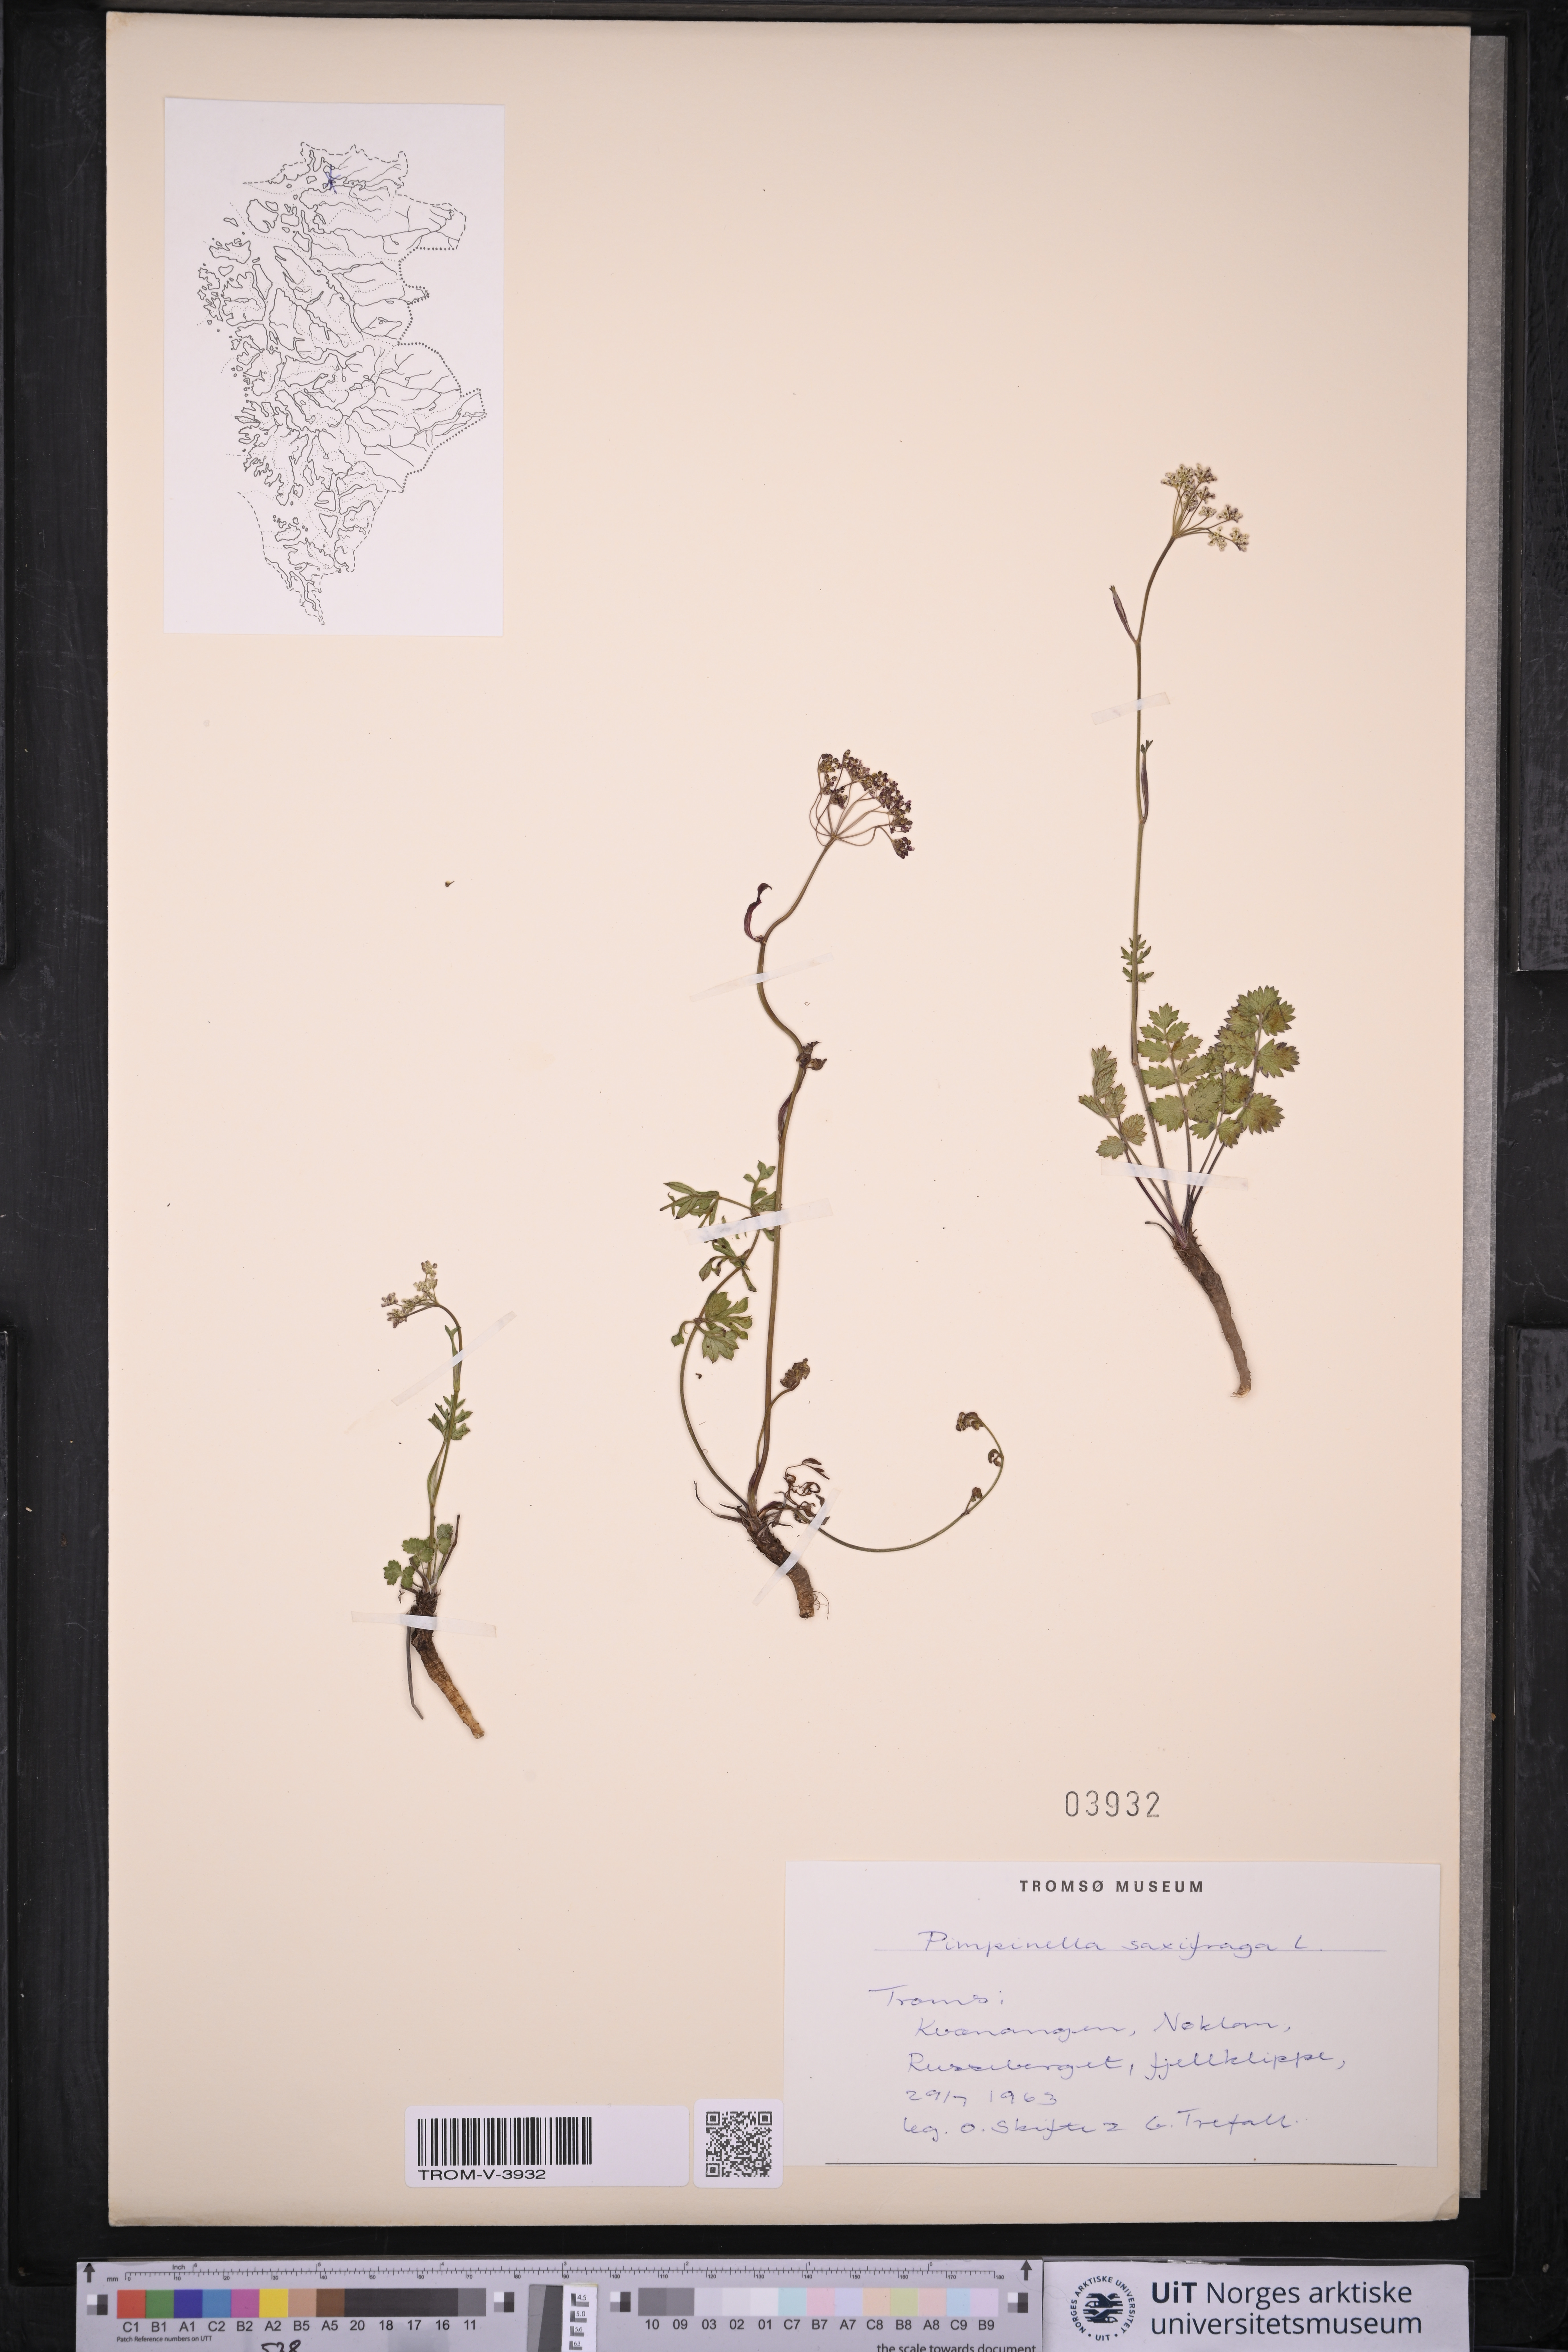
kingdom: Plantae
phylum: Tracheophyta
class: Magnoliopsida
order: Apiales
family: Apiaceae
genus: Pimpinella
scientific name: Pimpinella saxifraga
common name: Burnet-saxifrage
